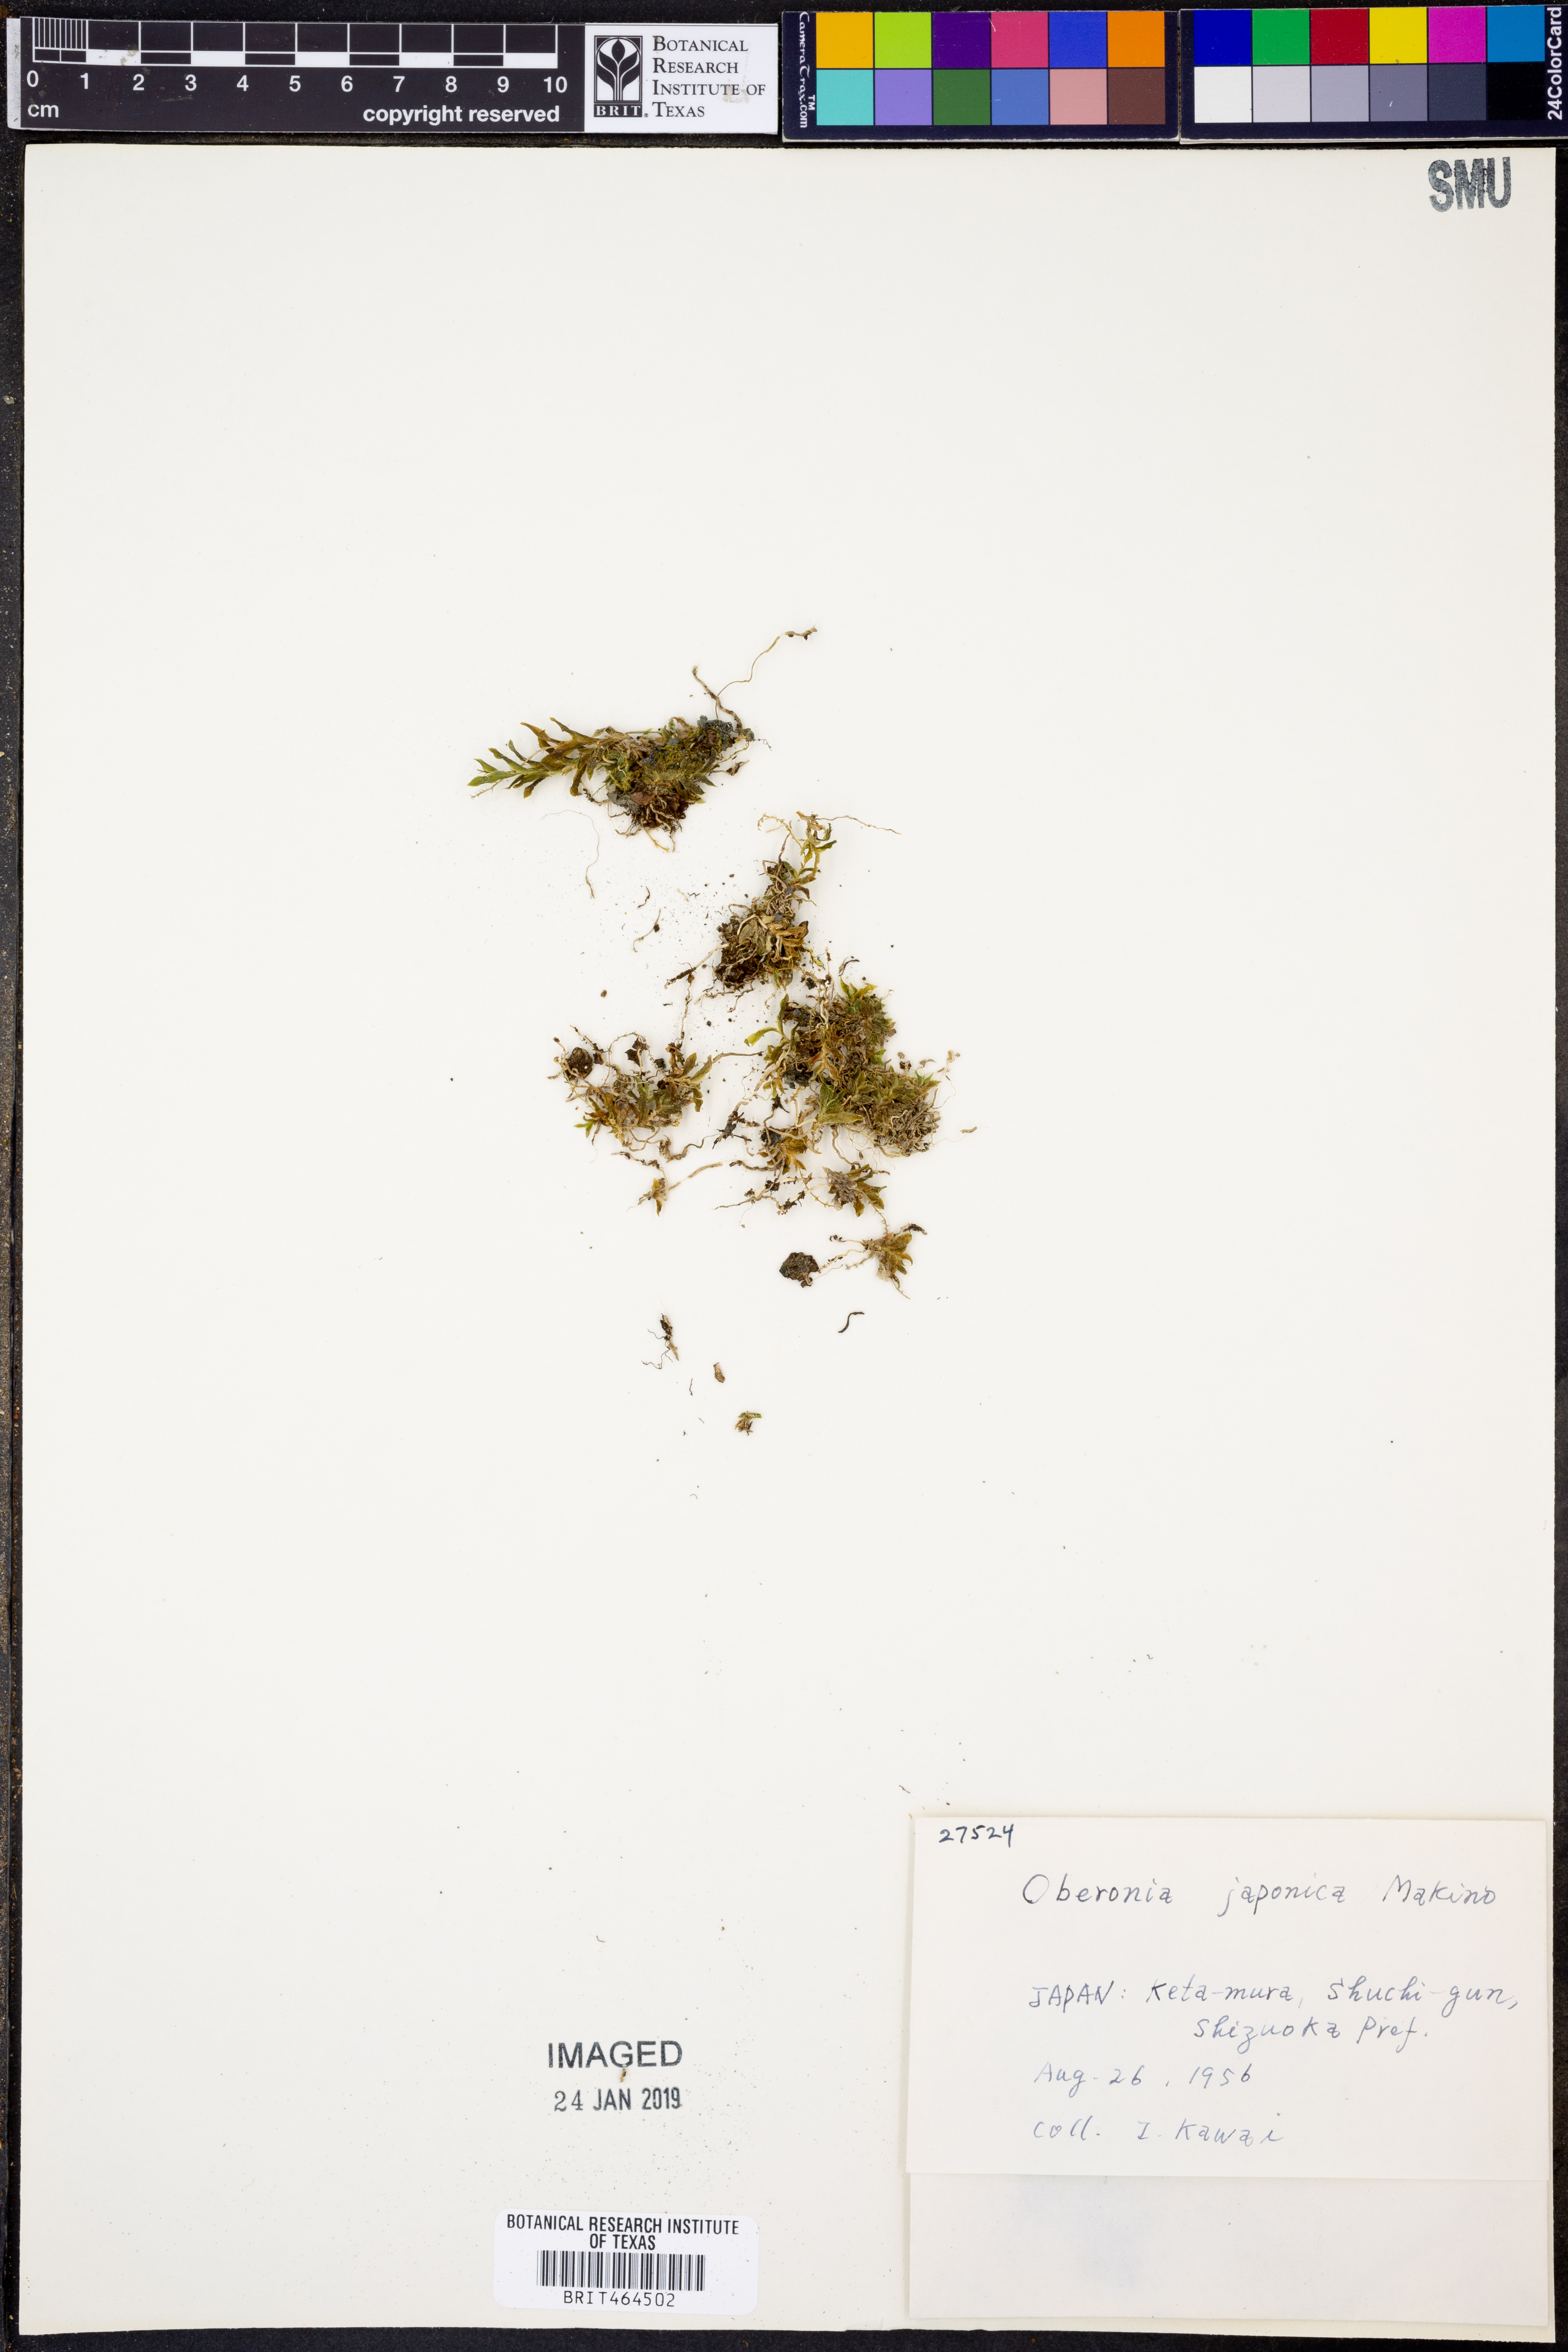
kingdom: Plantae
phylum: Tracheophyta
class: Liliopsida
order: Asparagales
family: Orchidaceae
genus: Oberonia
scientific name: Oberonia japonica
